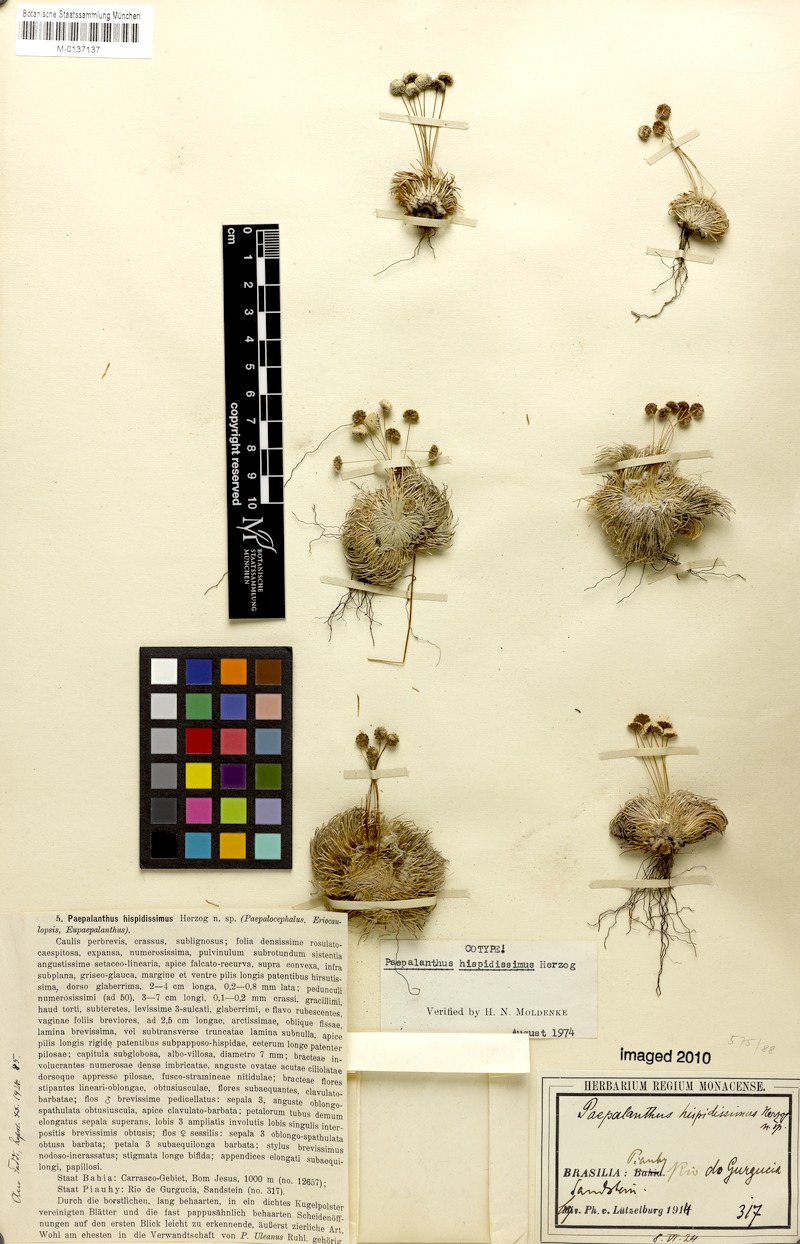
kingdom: Plantae
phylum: Tracheophyta
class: Liliopsida
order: Poales
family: Eriocaulaceae
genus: Paepalanthus
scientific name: Paepalanthus pulvinatus
